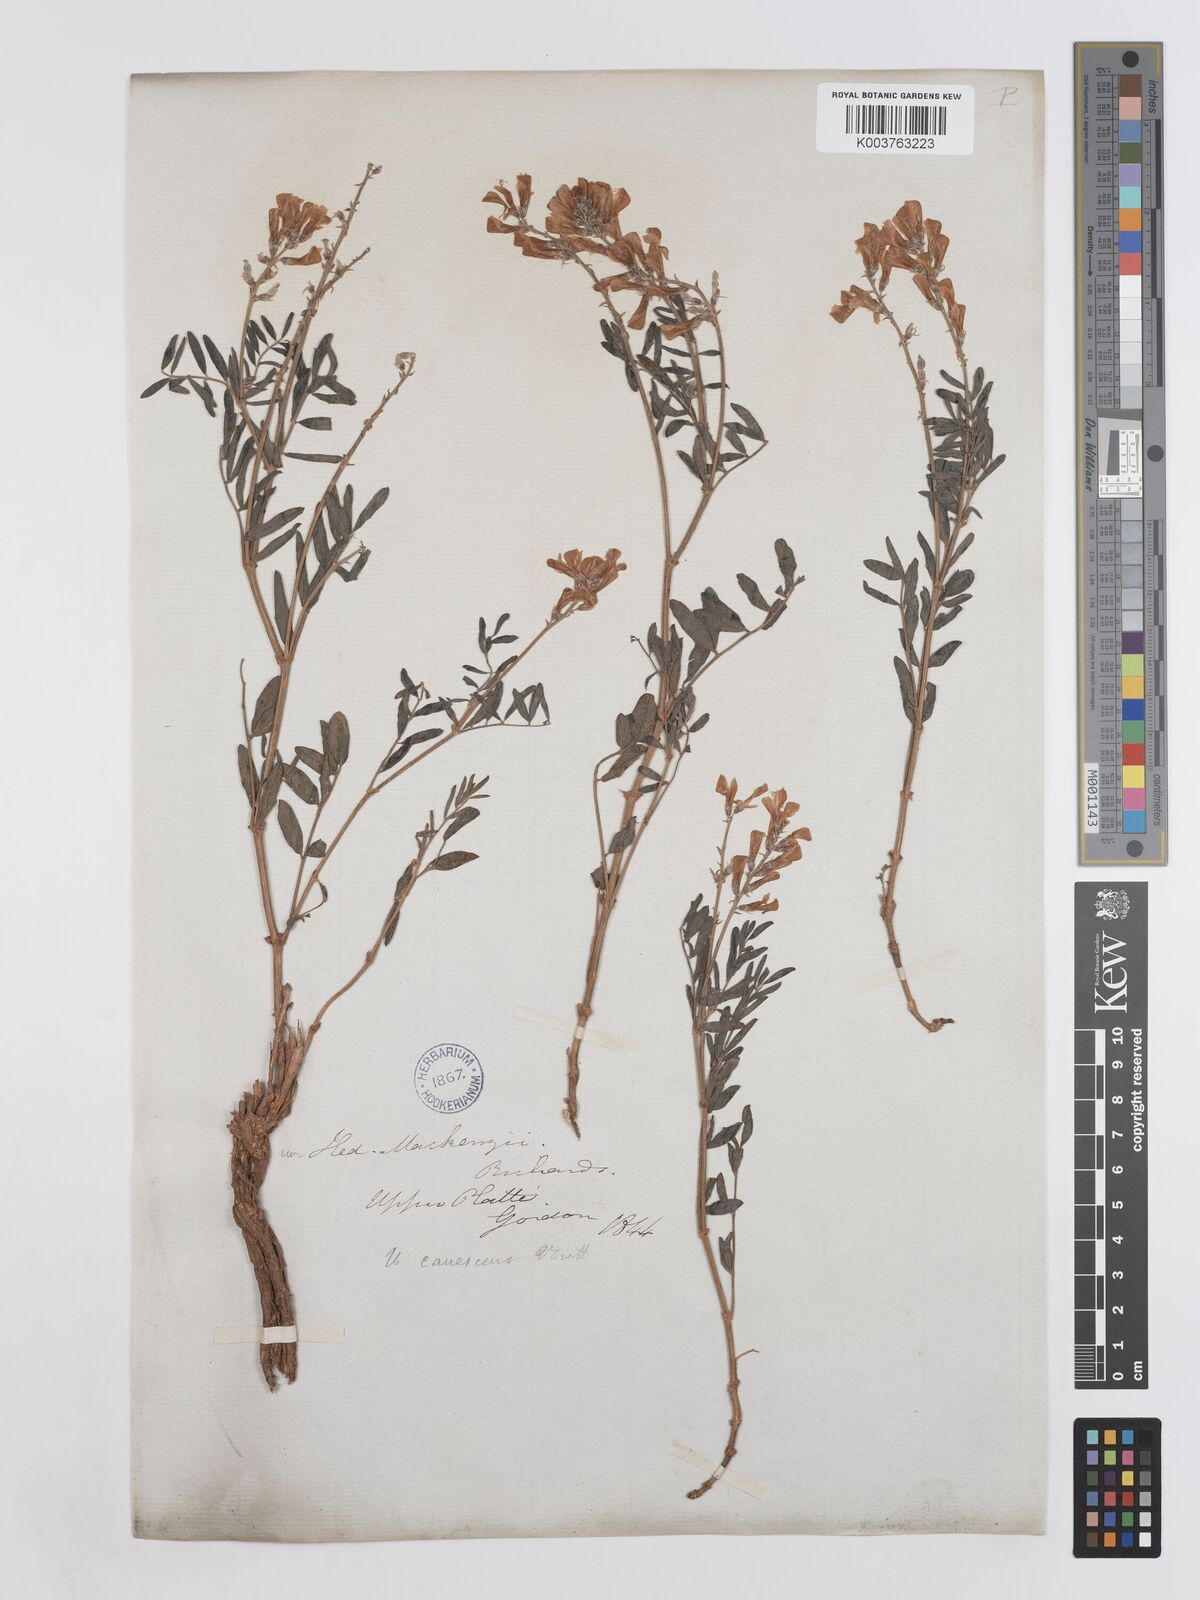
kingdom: Plantae
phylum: Tracheophyta
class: Magnoliopsida
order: Fabales
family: Fabaceae
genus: Hedysarum
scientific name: Hedysarum boreale
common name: Northern sweet-vetch
